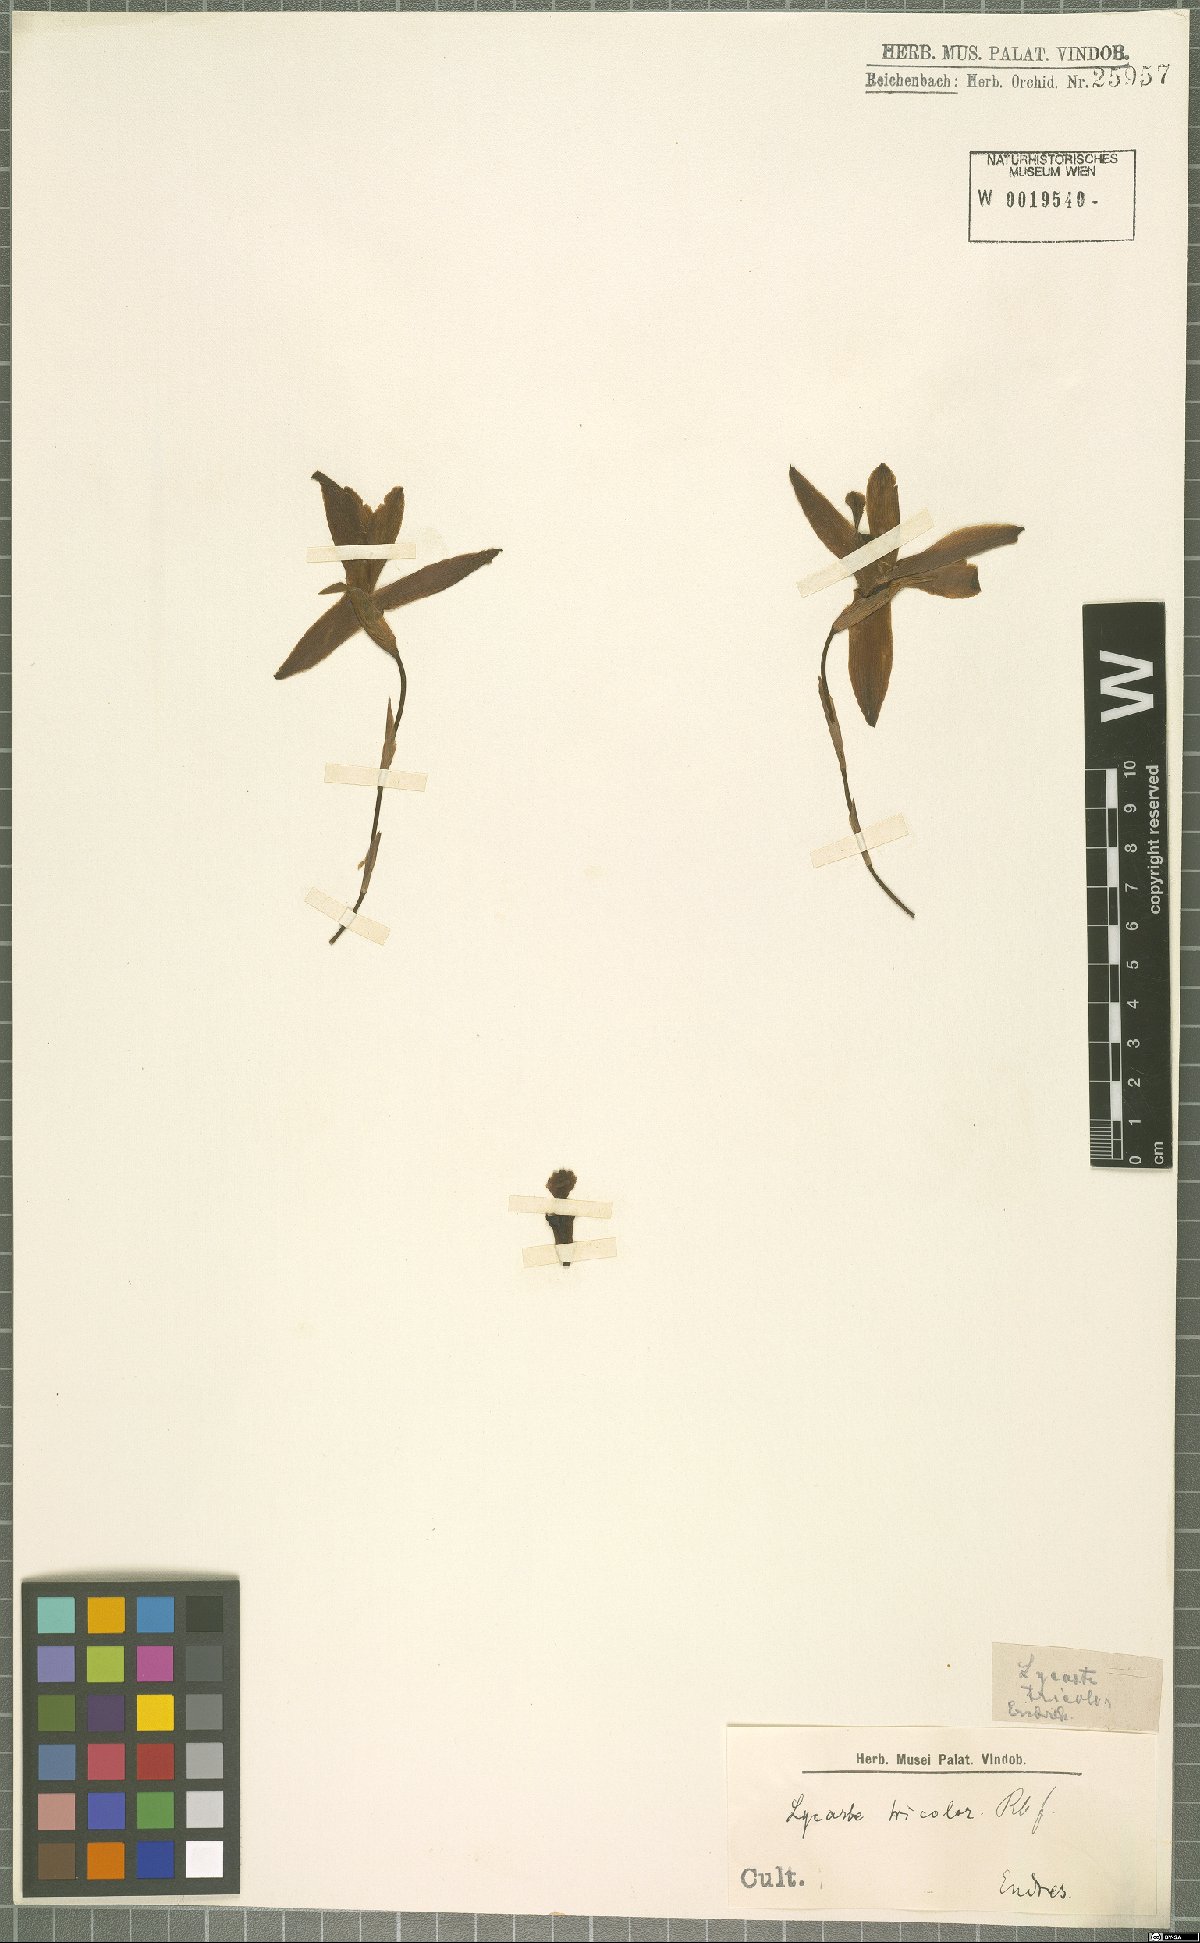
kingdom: Plantae
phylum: Tracheophyta
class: Liliopsida
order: Asparagales
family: Orchidaceae
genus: Lycaste
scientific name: Lycaste tricolor
